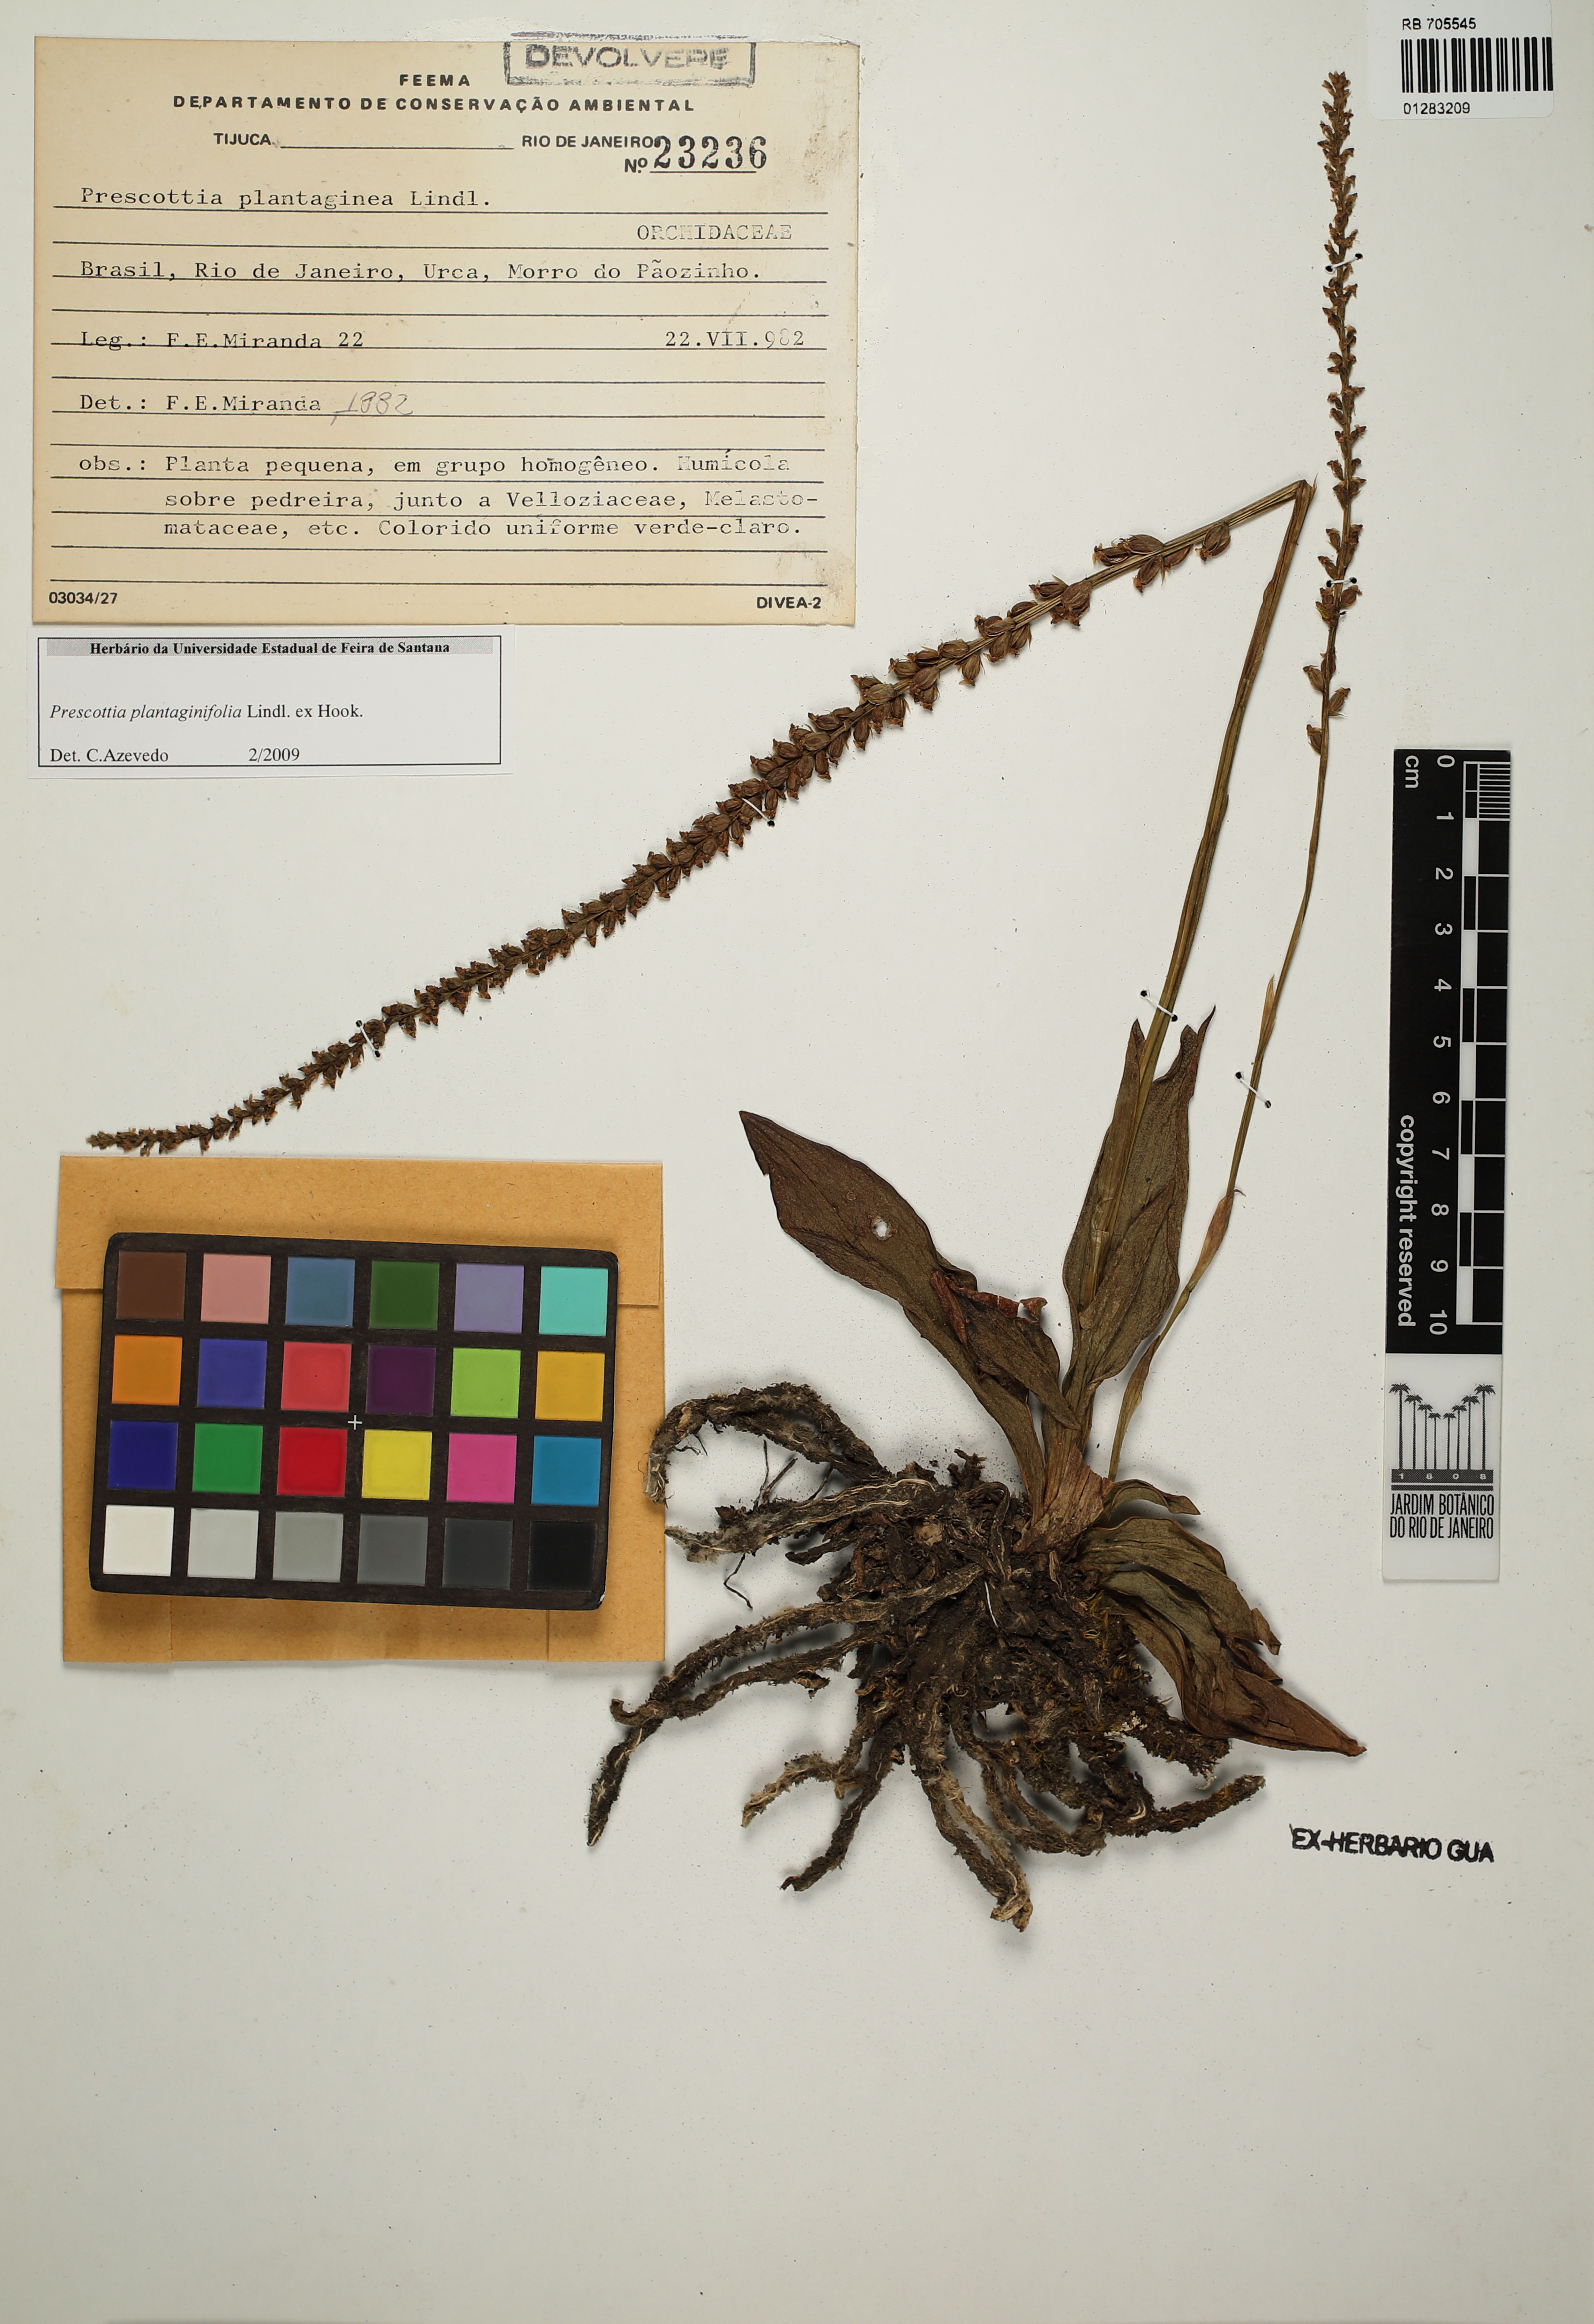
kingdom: Plantae
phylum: Tracheophyta
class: Liliopsida
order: Asparagales
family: Orchidaceae
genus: Prescottia
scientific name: Prescottia plantaginifolia
